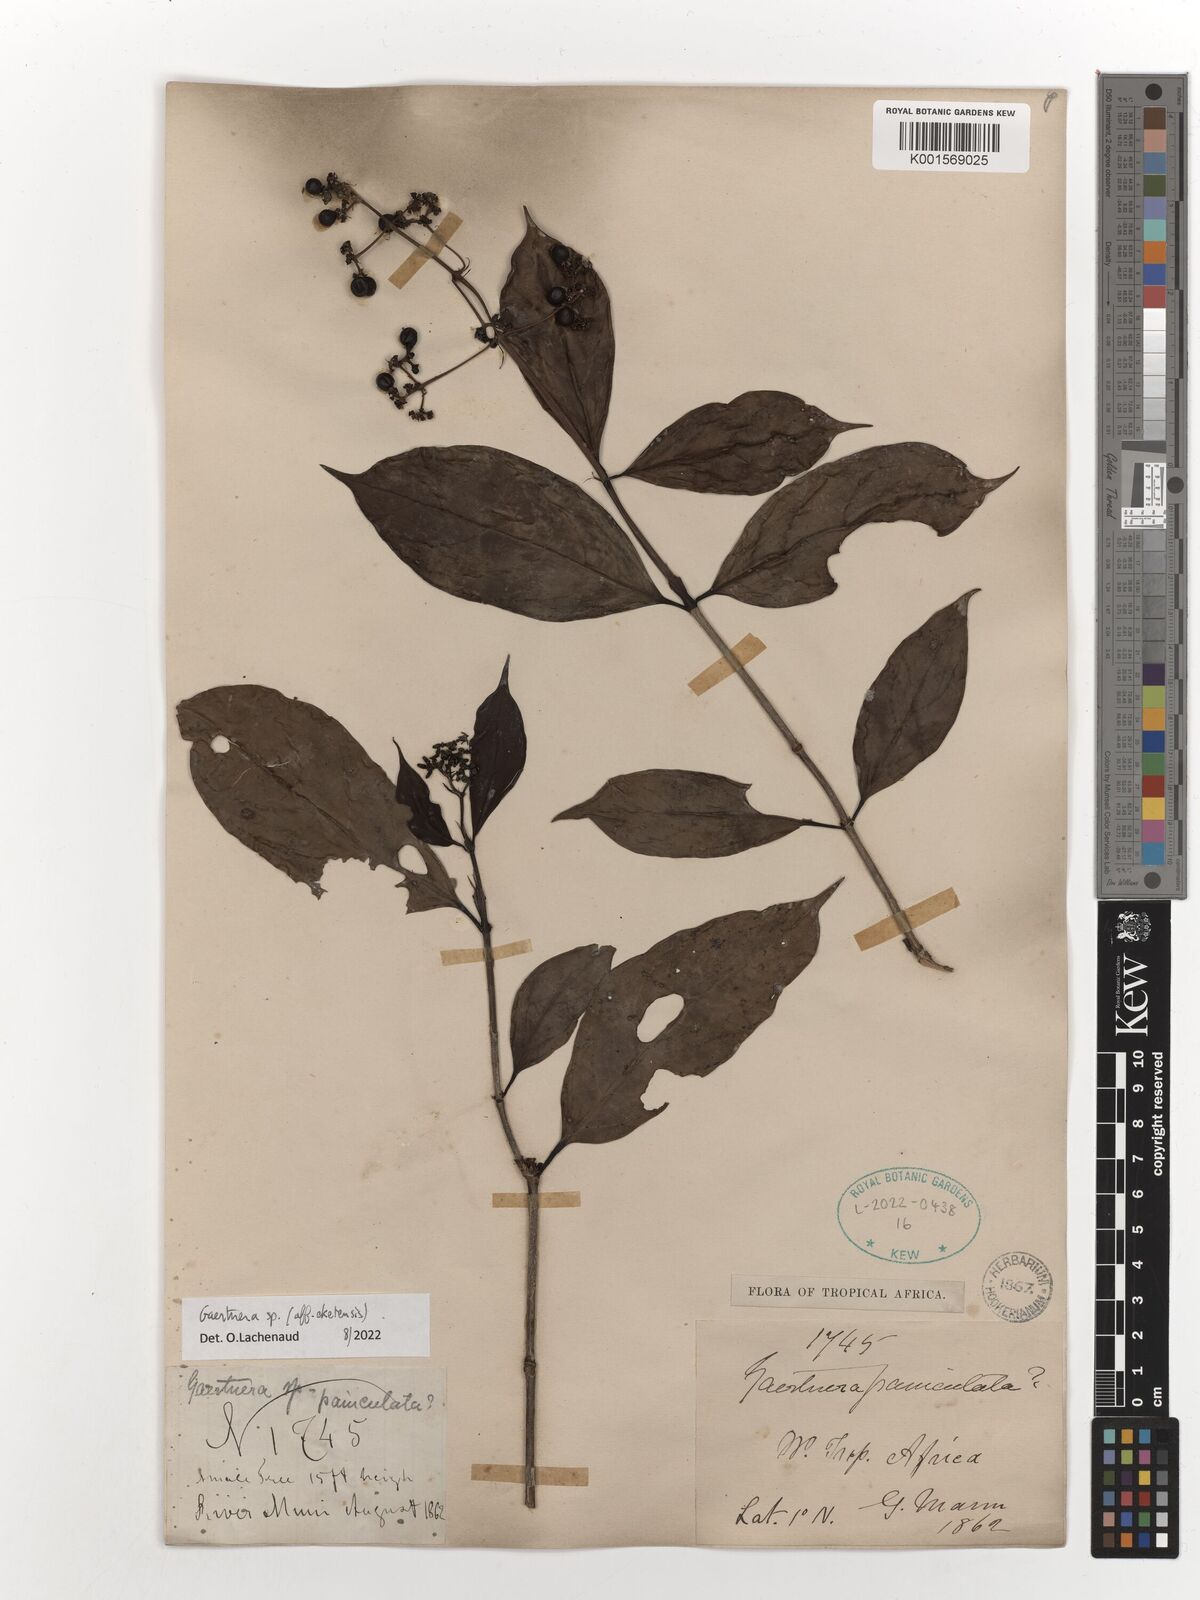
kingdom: Plantae
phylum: Tracheophyta
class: Magnoliopsida
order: Gentianales
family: Rubiaceae
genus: Gaertnera
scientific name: Gaertnera eketensis
